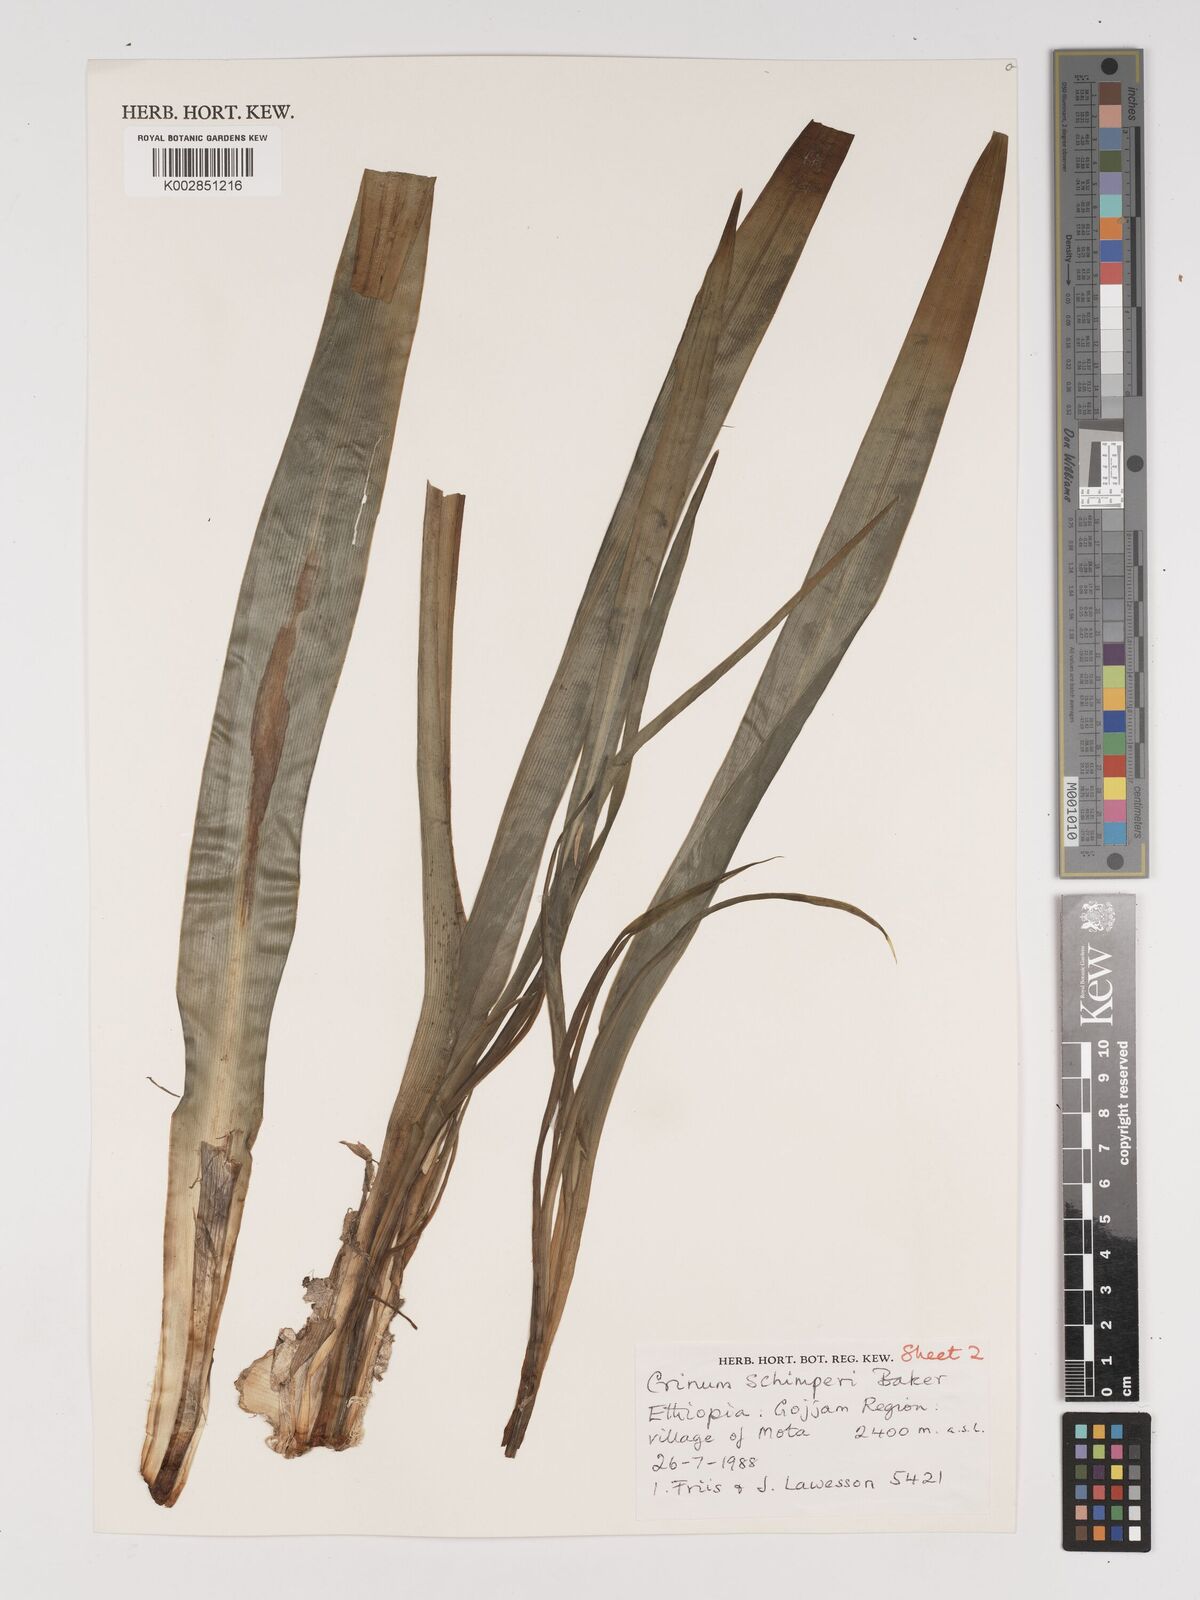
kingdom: Plantae
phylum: Tracheophyta
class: Liliopsida
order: Asparagales
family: Amaryllidaceae
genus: Crinum
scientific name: Crinum abyssinicum
